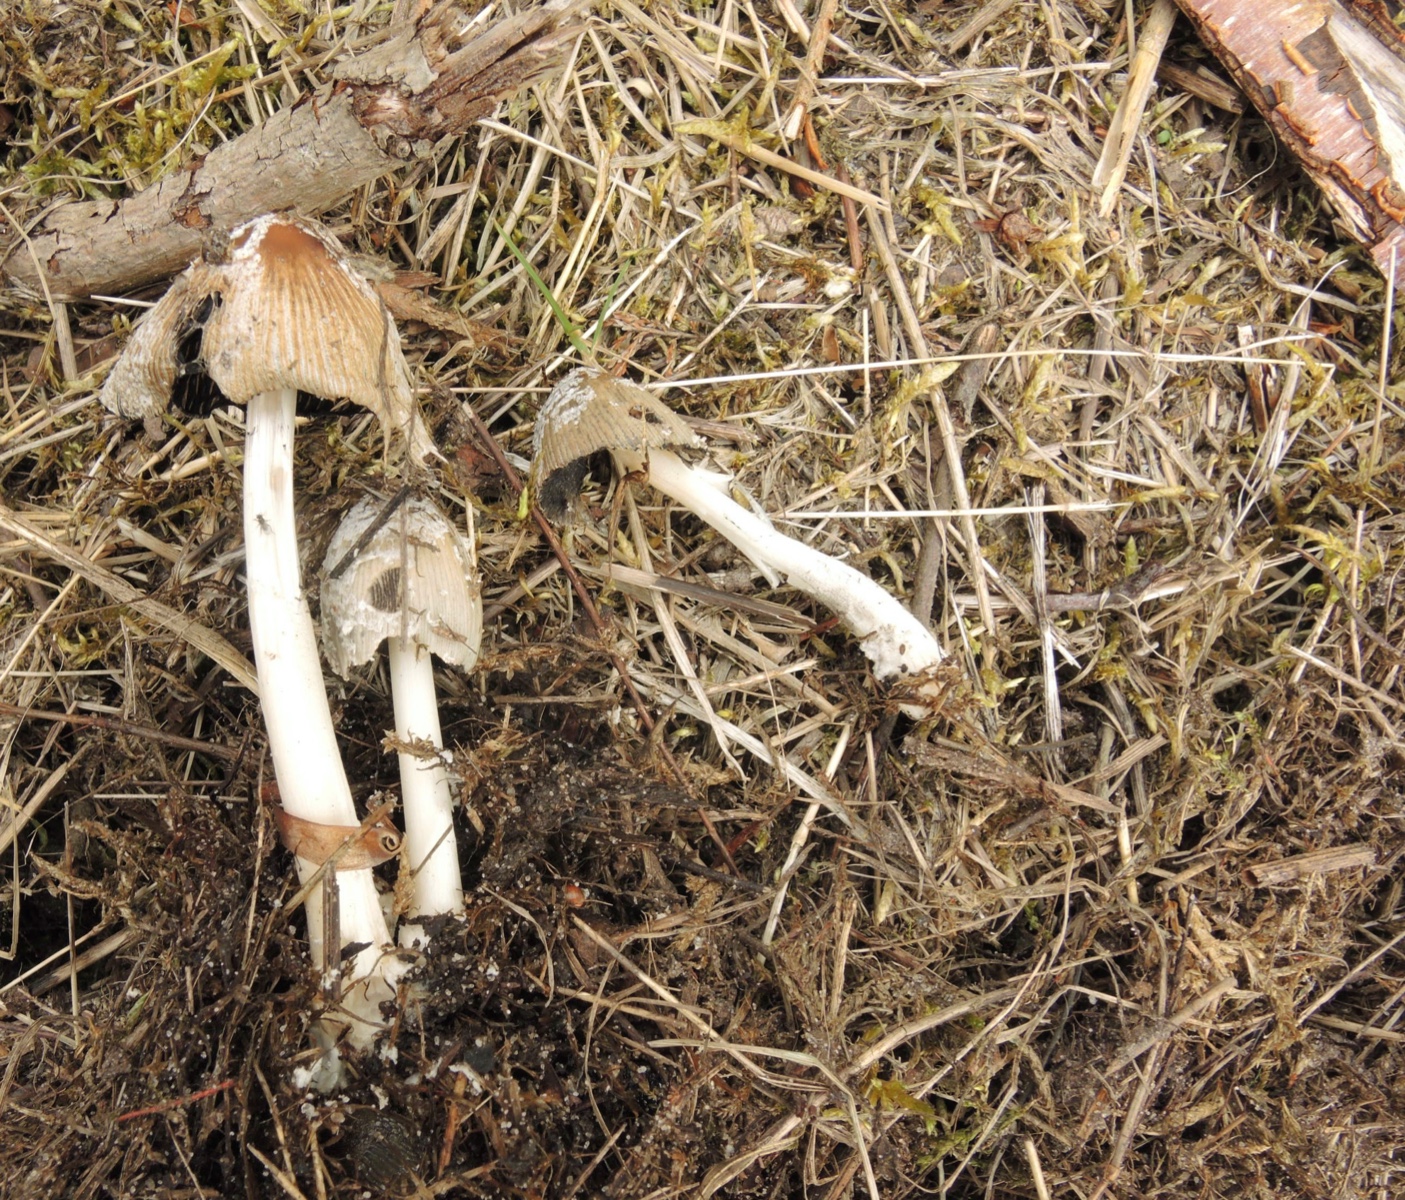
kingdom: Fungi
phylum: Basidiomycota
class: Agaricomycetes
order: Agaricales
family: Psathyrellaceae
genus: Coprinellus
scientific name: Coprinellus flocculosus
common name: fnugget blækhat
